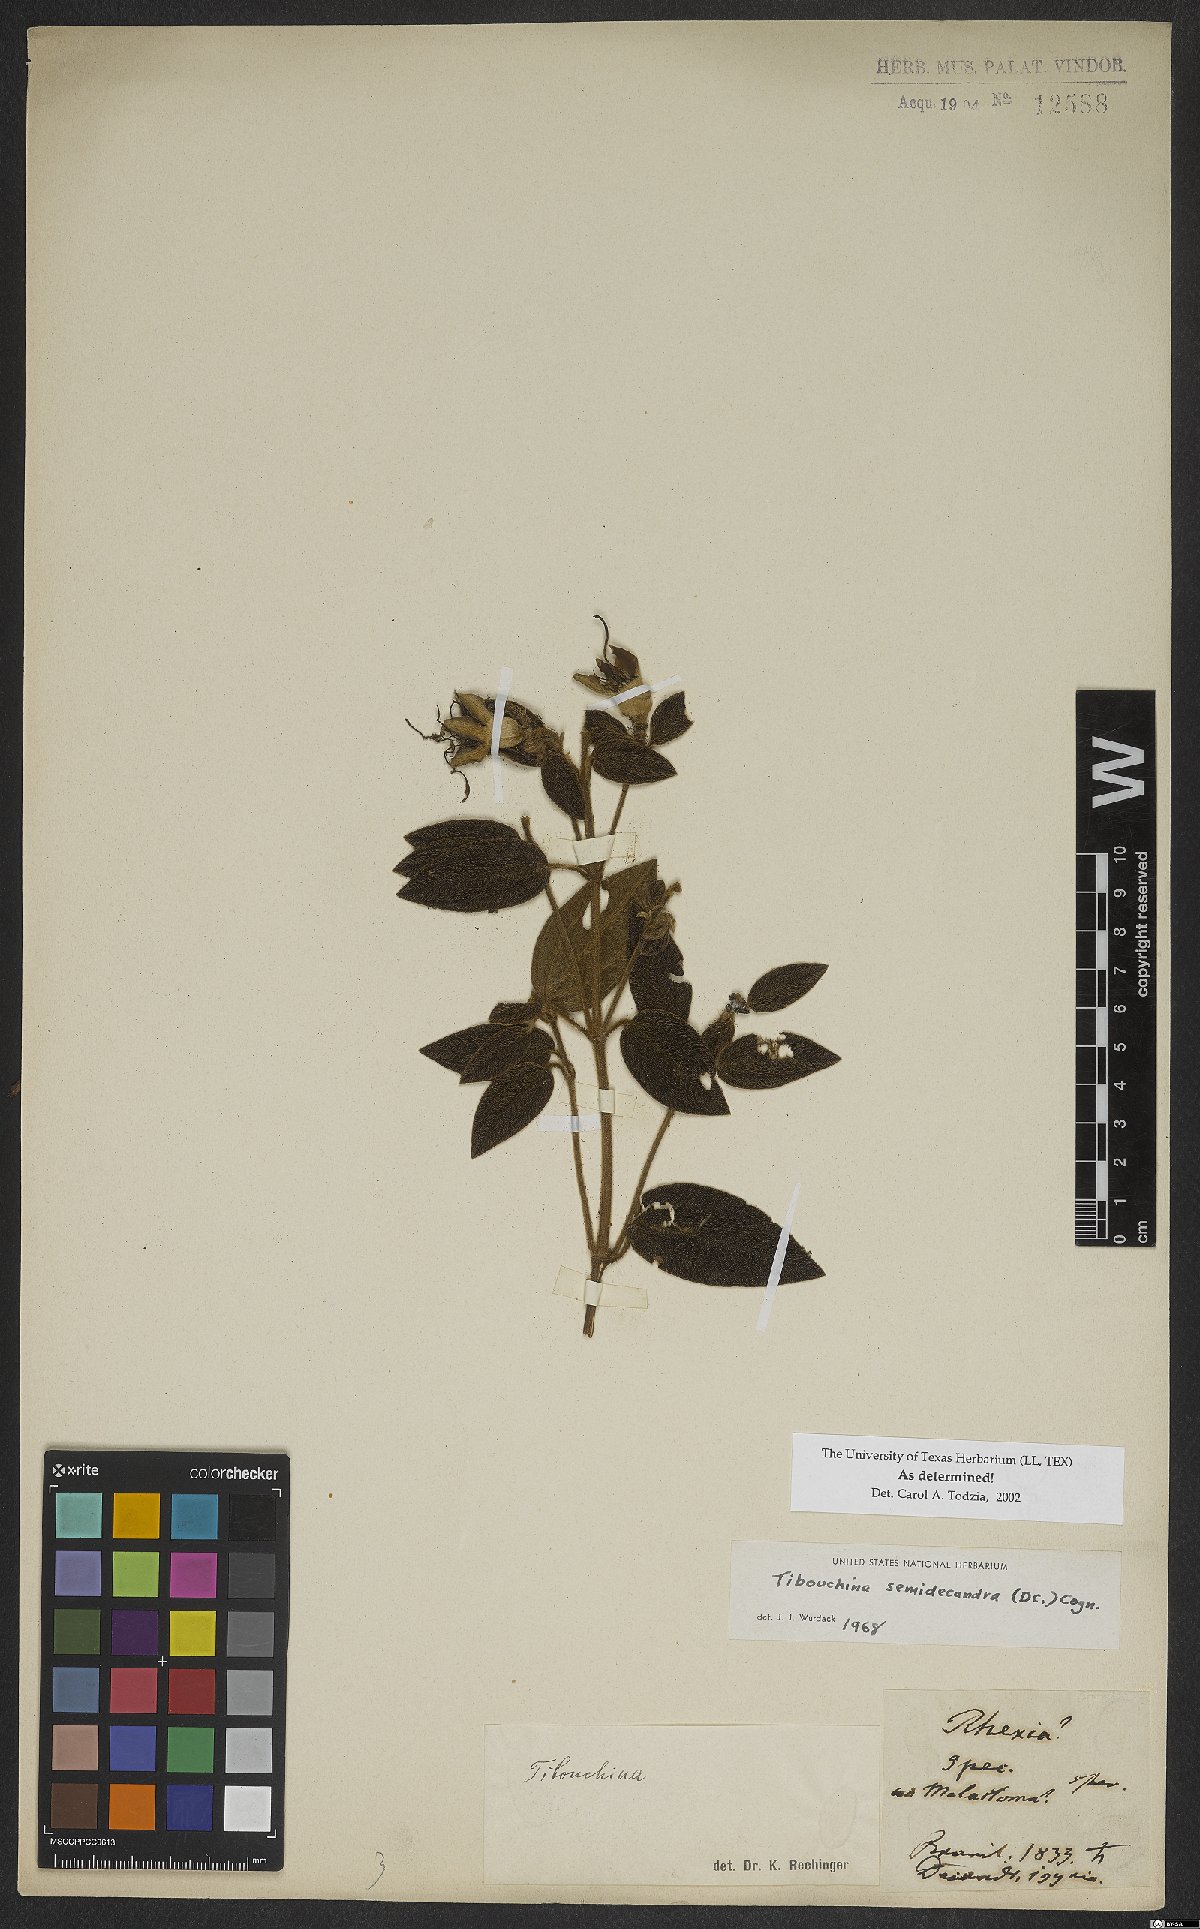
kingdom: Plantae
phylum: Tracheophyta
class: Magnoliopsida
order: Myrtales
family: Melastomataceae
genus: Pleroma
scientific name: Pleroma semidecandrum
